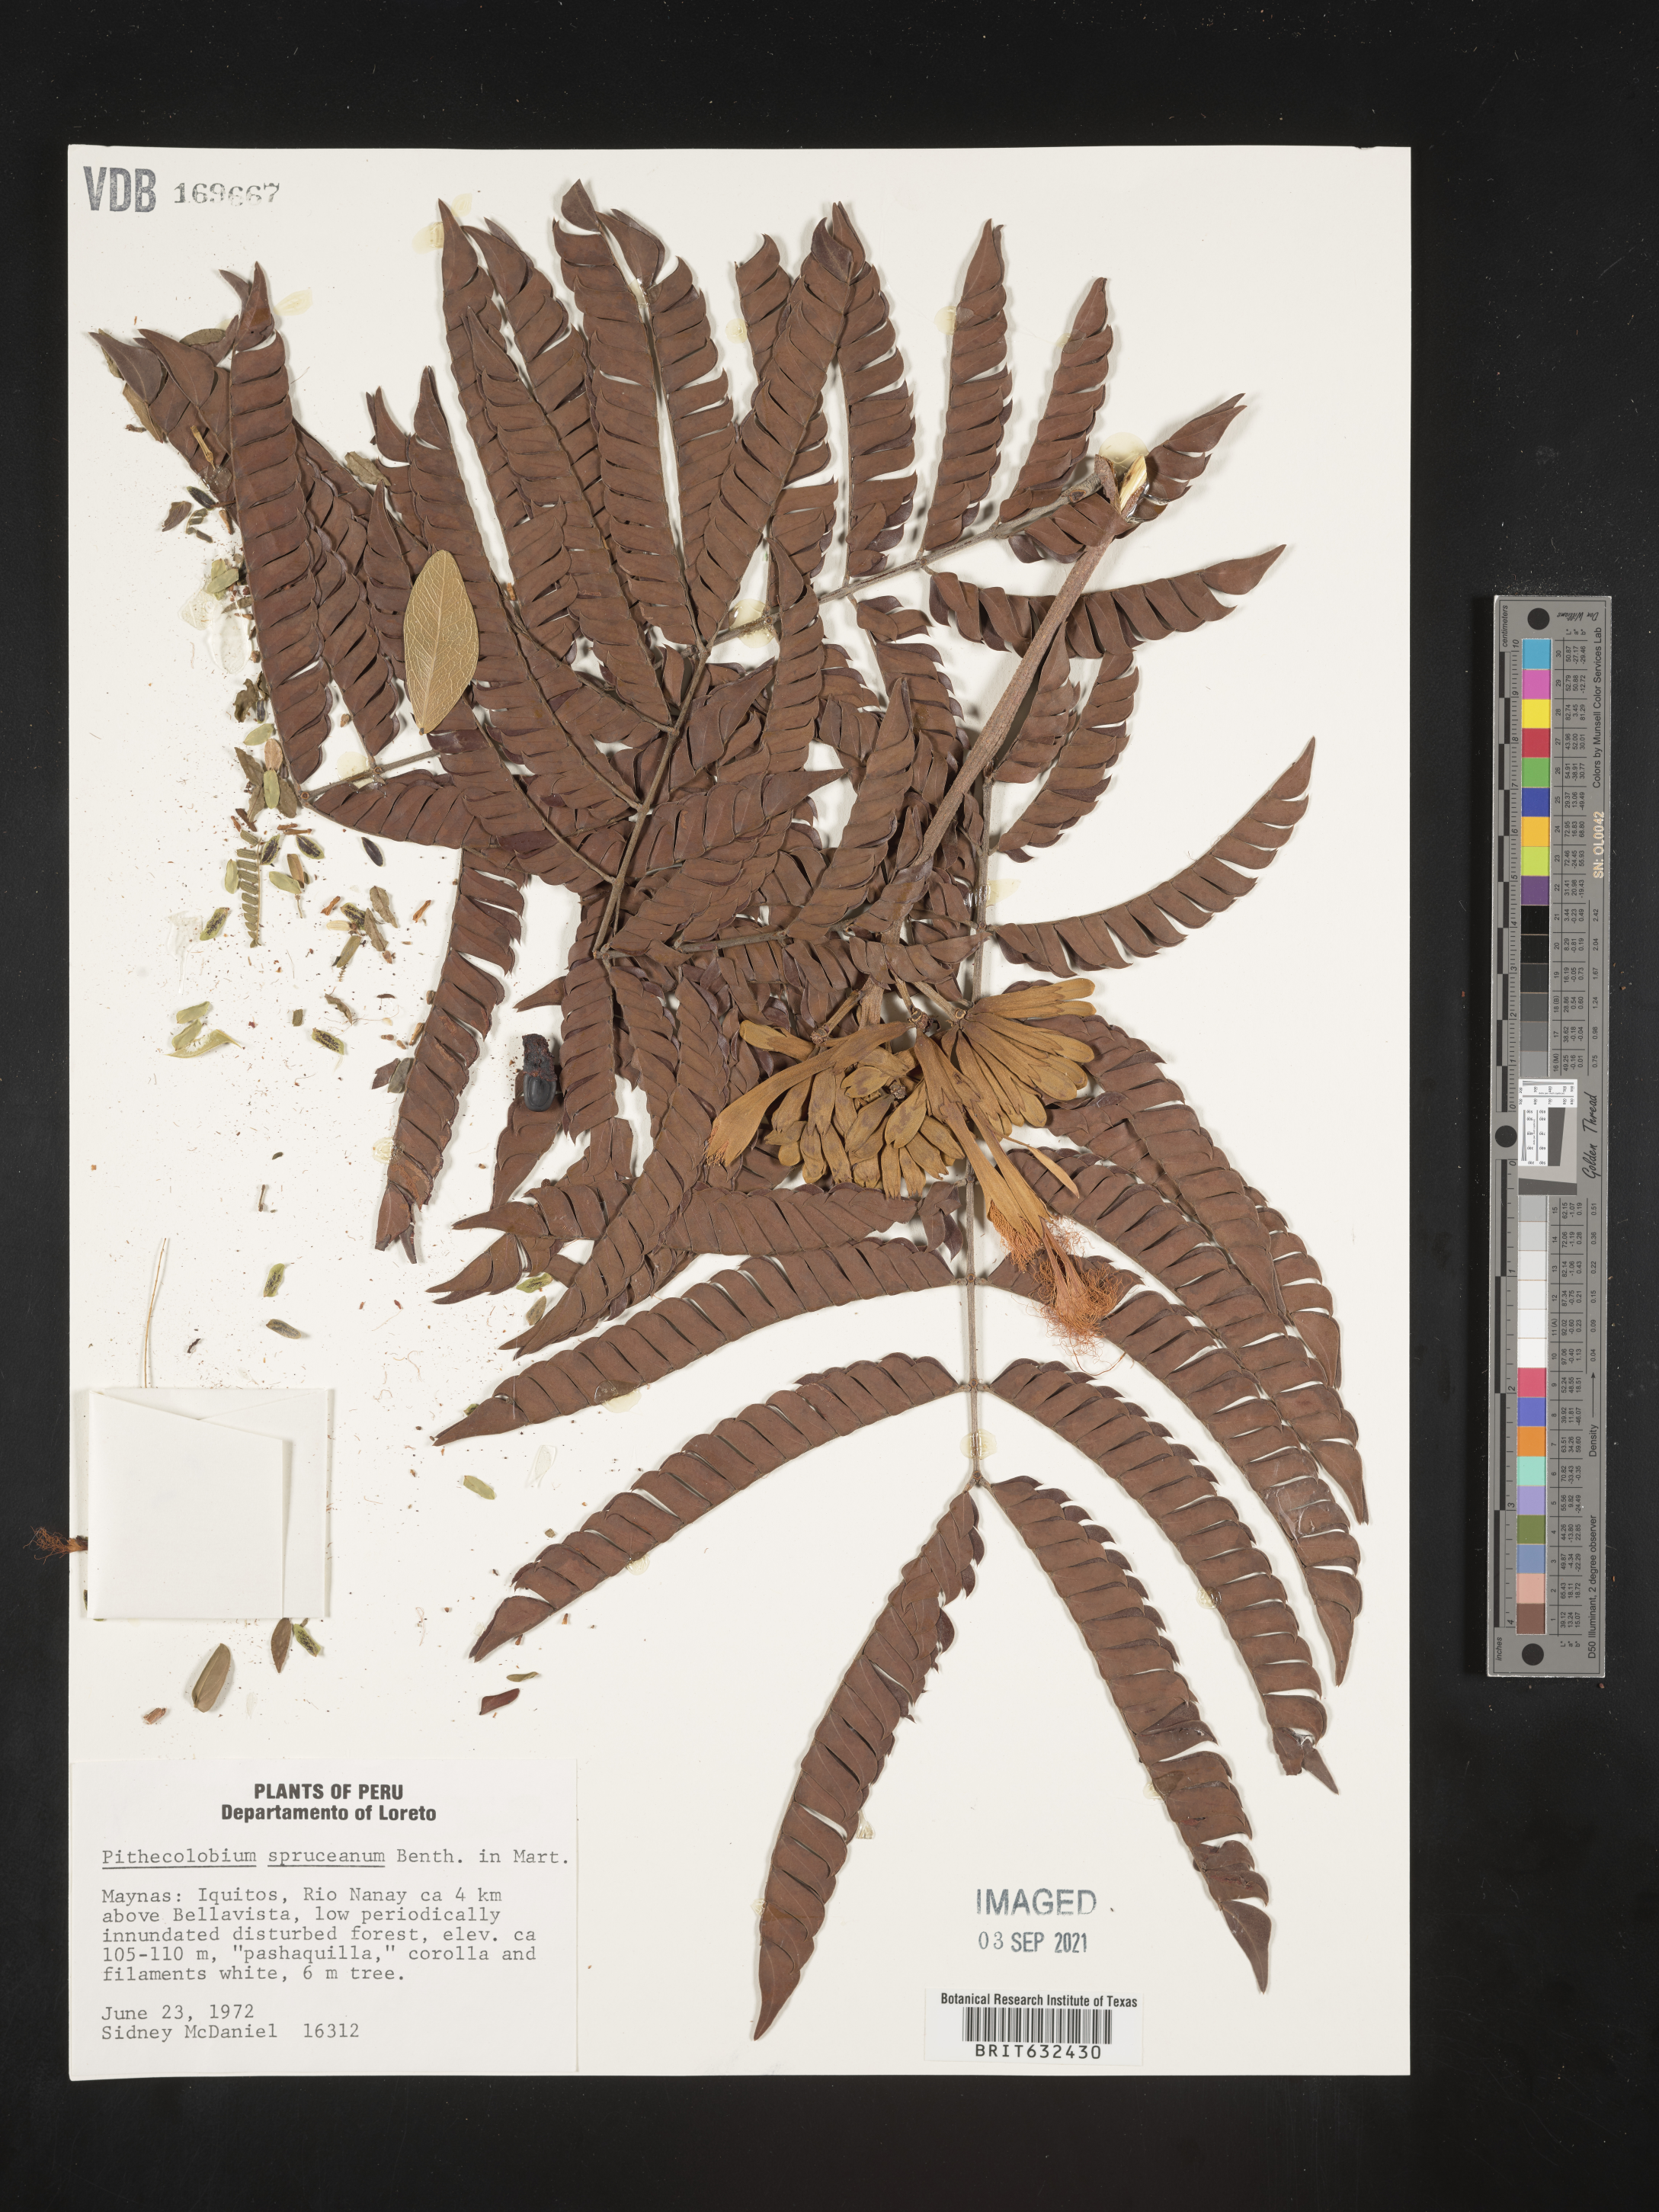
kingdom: Plantae
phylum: Tracheophyta
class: Magnoliopsida
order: Fabales
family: Fabaceae
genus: Pithecellobium
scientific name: Pithecellobium
